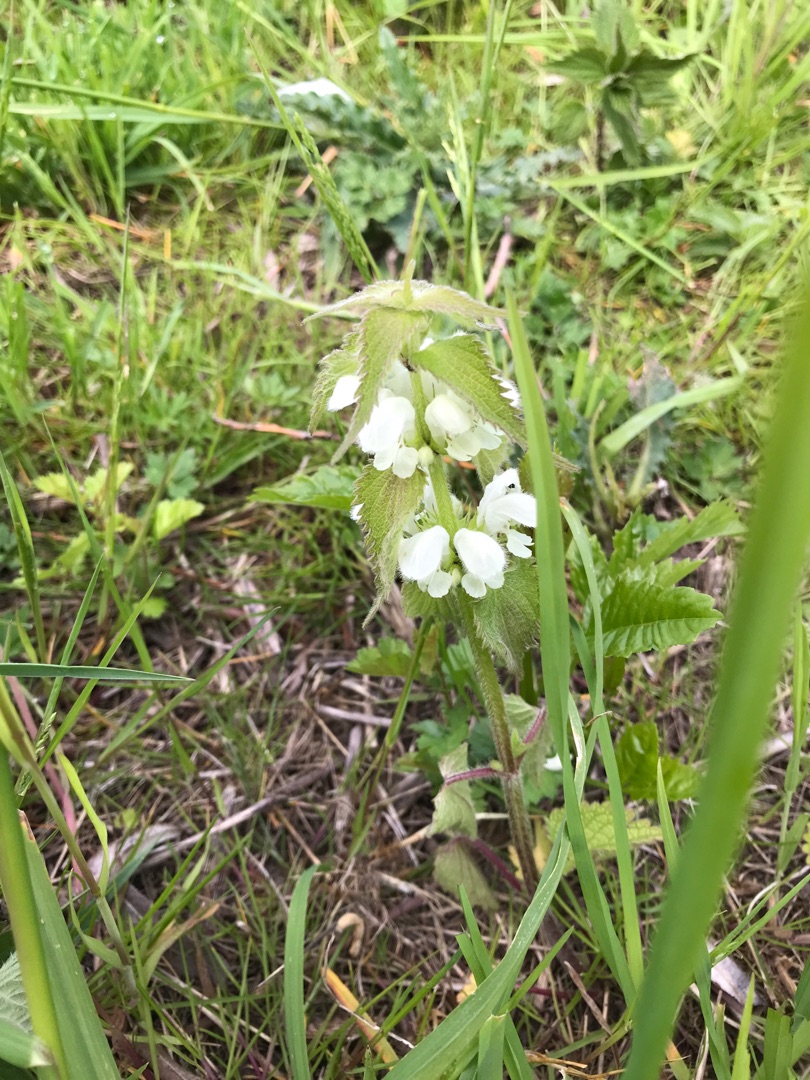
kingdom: Plantae
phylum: Tracheophyta
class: Magnoliopsida
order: Lamiales
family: Lamiaceae
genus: Lamium
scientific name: Lamium album
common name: Døvnælde
